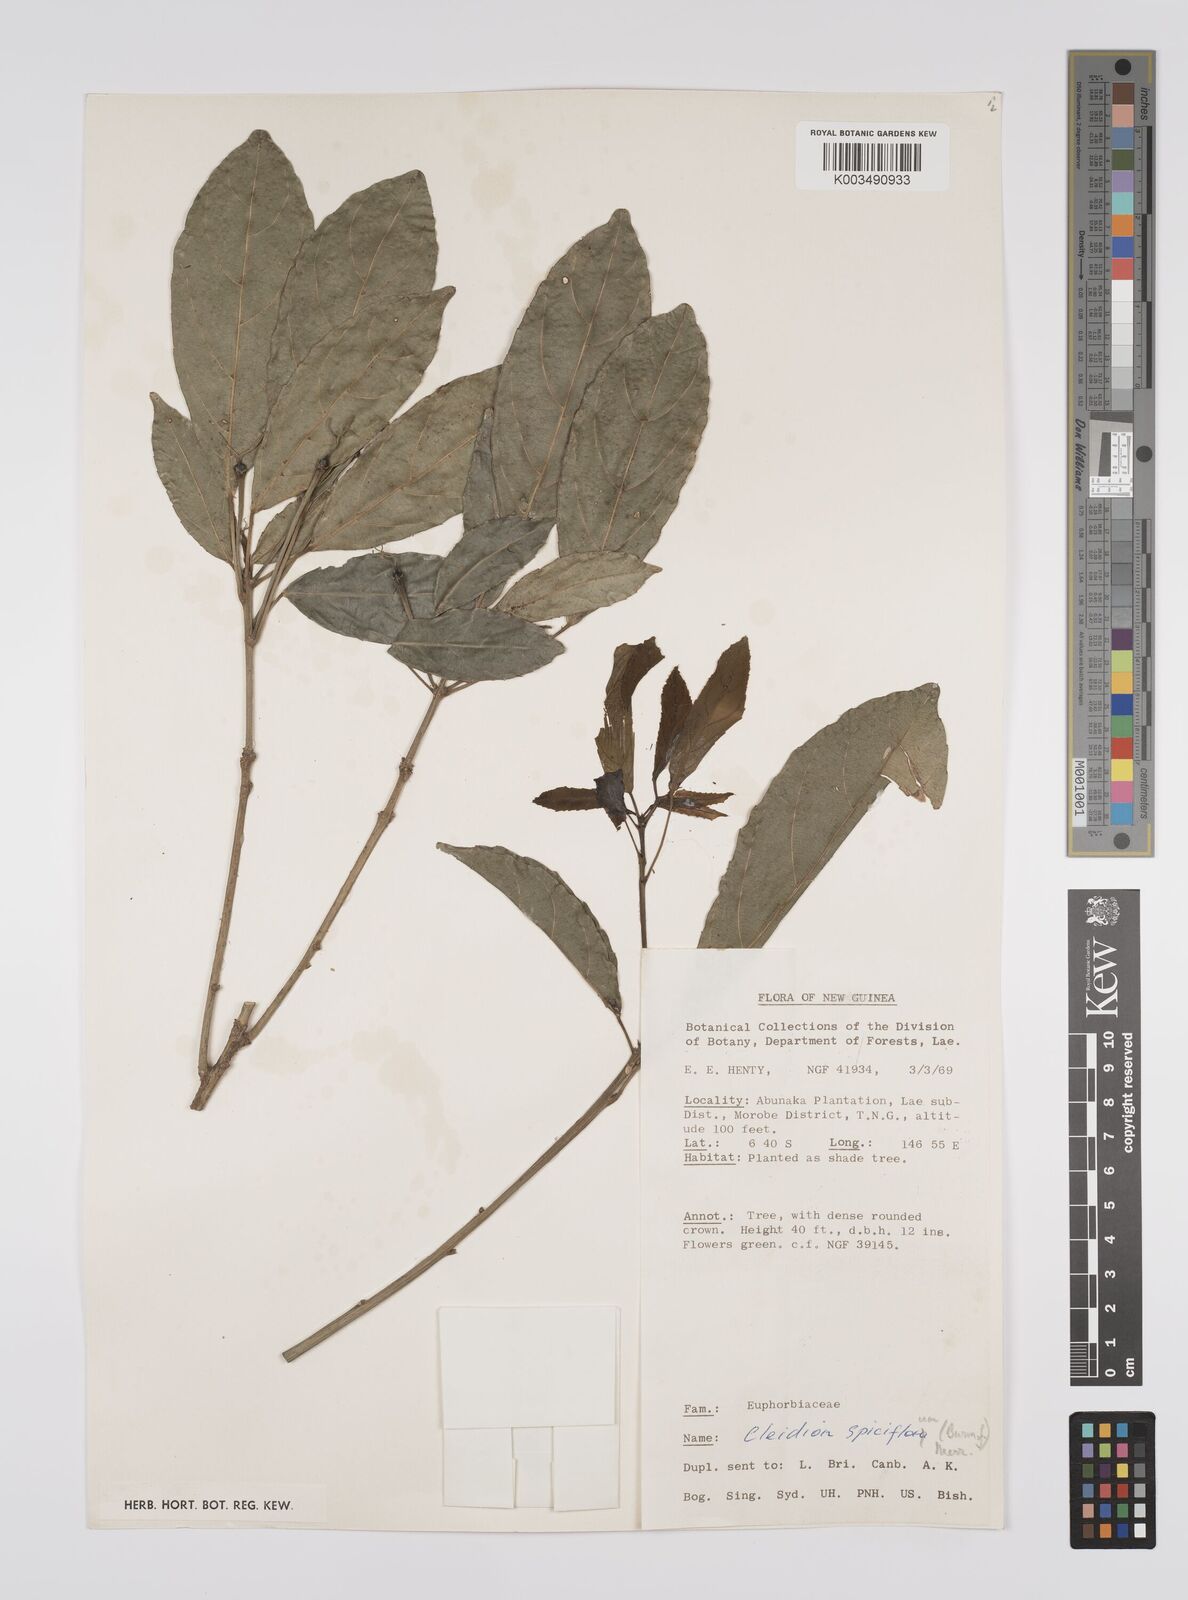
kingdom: Plantae
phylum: Tracheophyta
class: Magnoliopsida
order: Malpighiales
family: Euphorbiaceae
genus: Cleidion
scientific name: Cleidion javanicum
